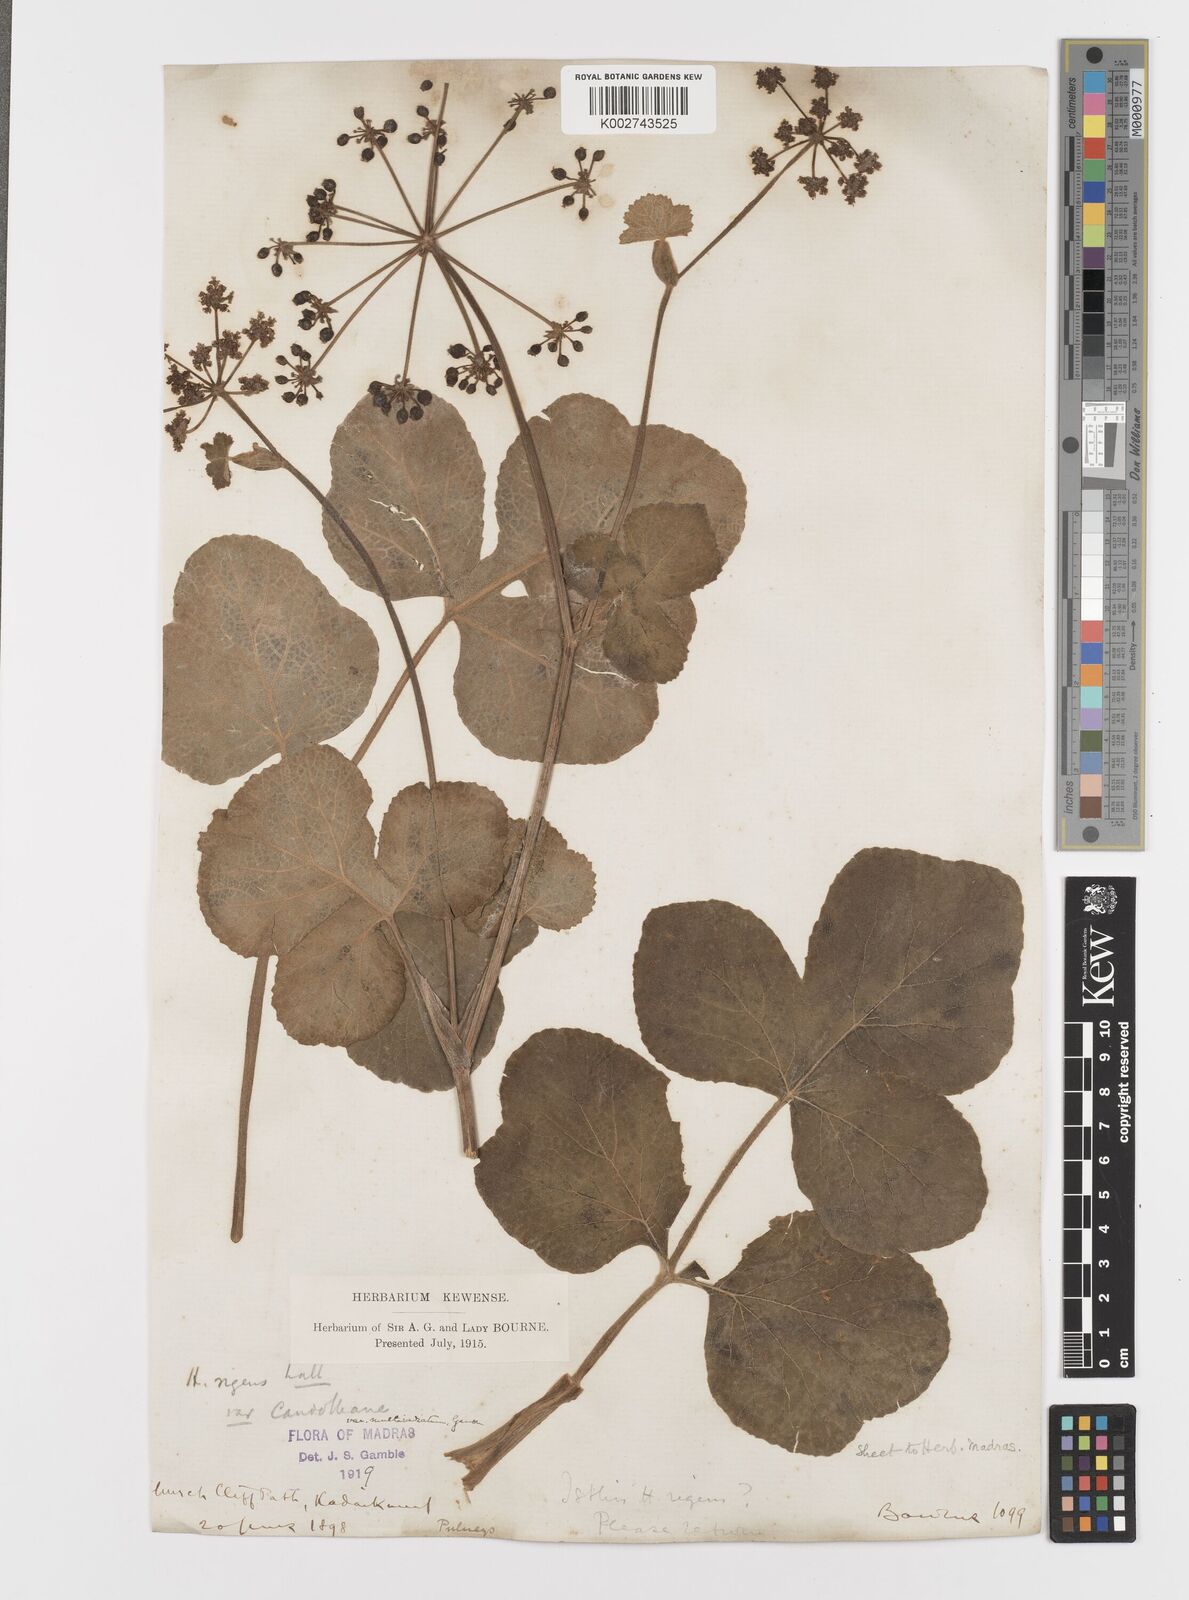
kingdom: Plantae
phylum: Tracheophyta
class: Magnoliopsida
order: Apiales
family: Apiaceae
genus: Tetrataenium
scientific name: Tetrataenium rigens
